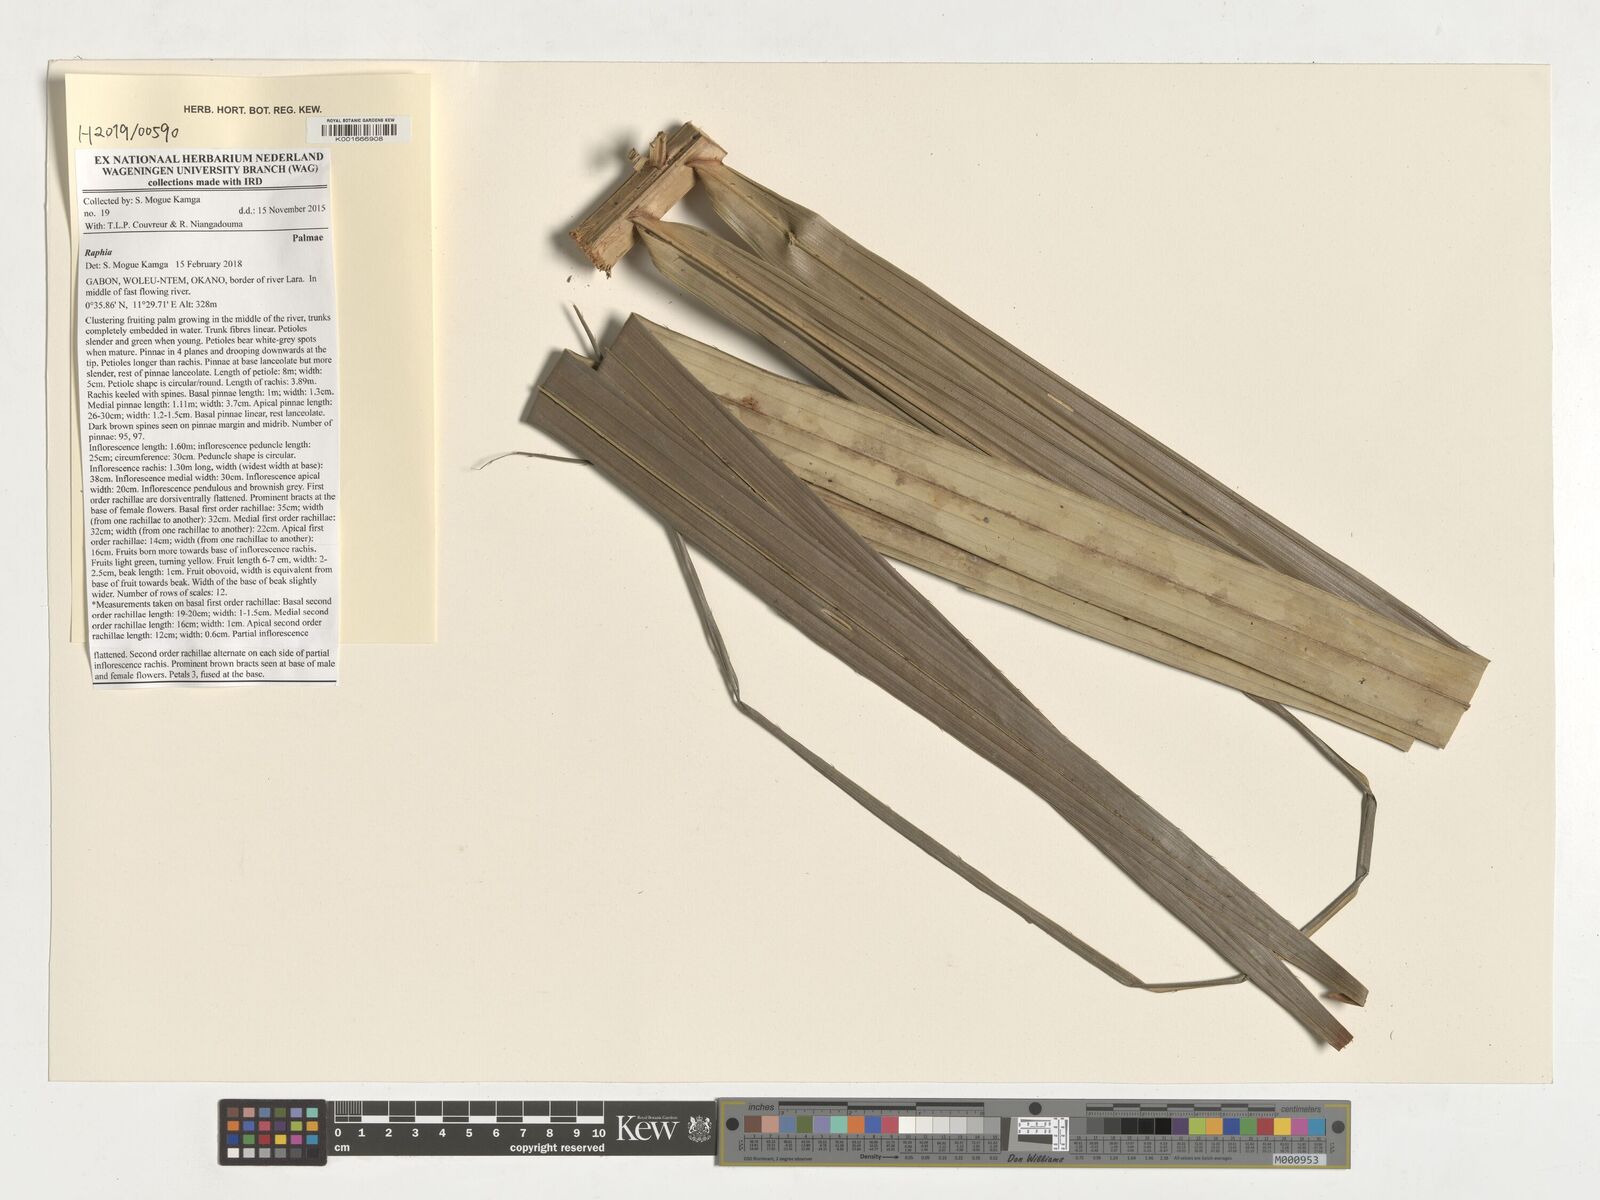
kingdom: Plantae
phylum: Tracheophyta
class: Liliopsida
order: Arecales
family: Arecaceae
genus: Raphia
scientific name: Raphia
